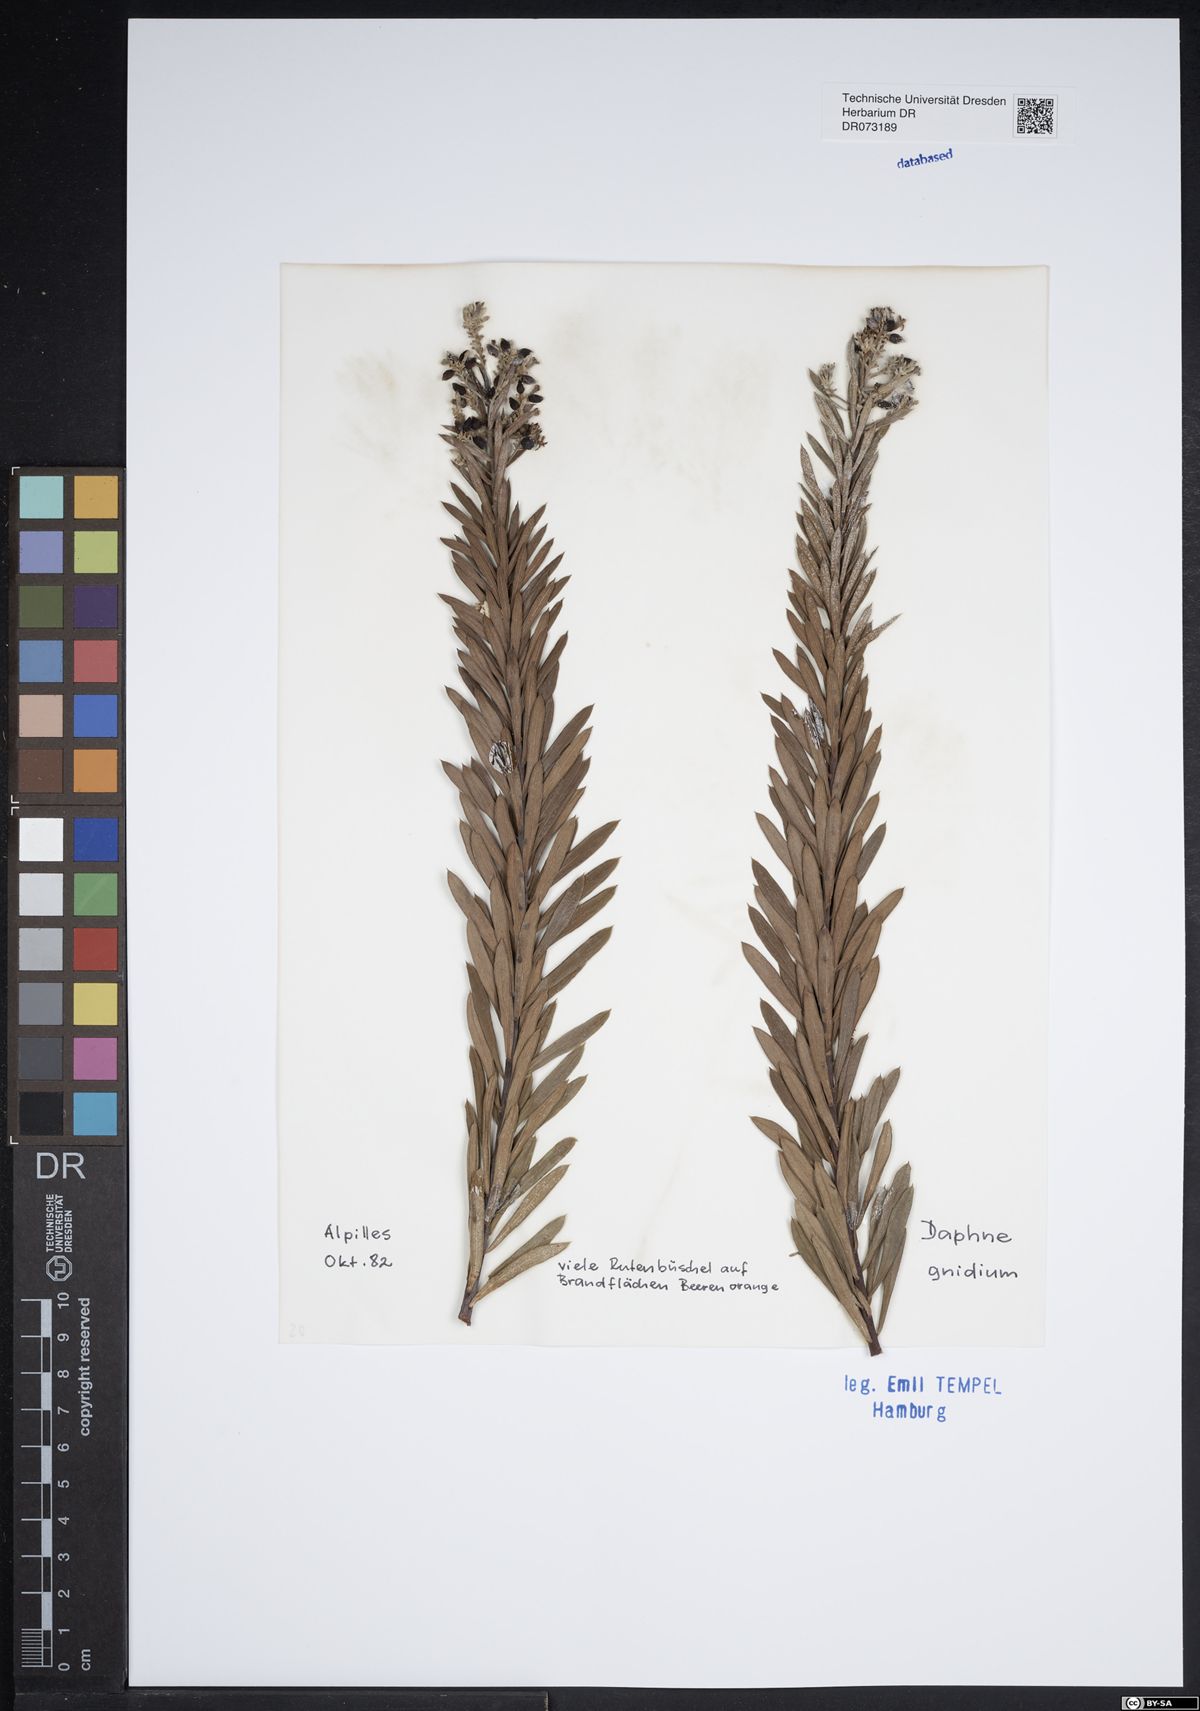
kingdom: Plantae
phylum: Tracheophyta
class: Magnoliopsida
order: Malvales
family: Thymelaeaceae
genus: Daphne
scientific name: Daphne gnidium
